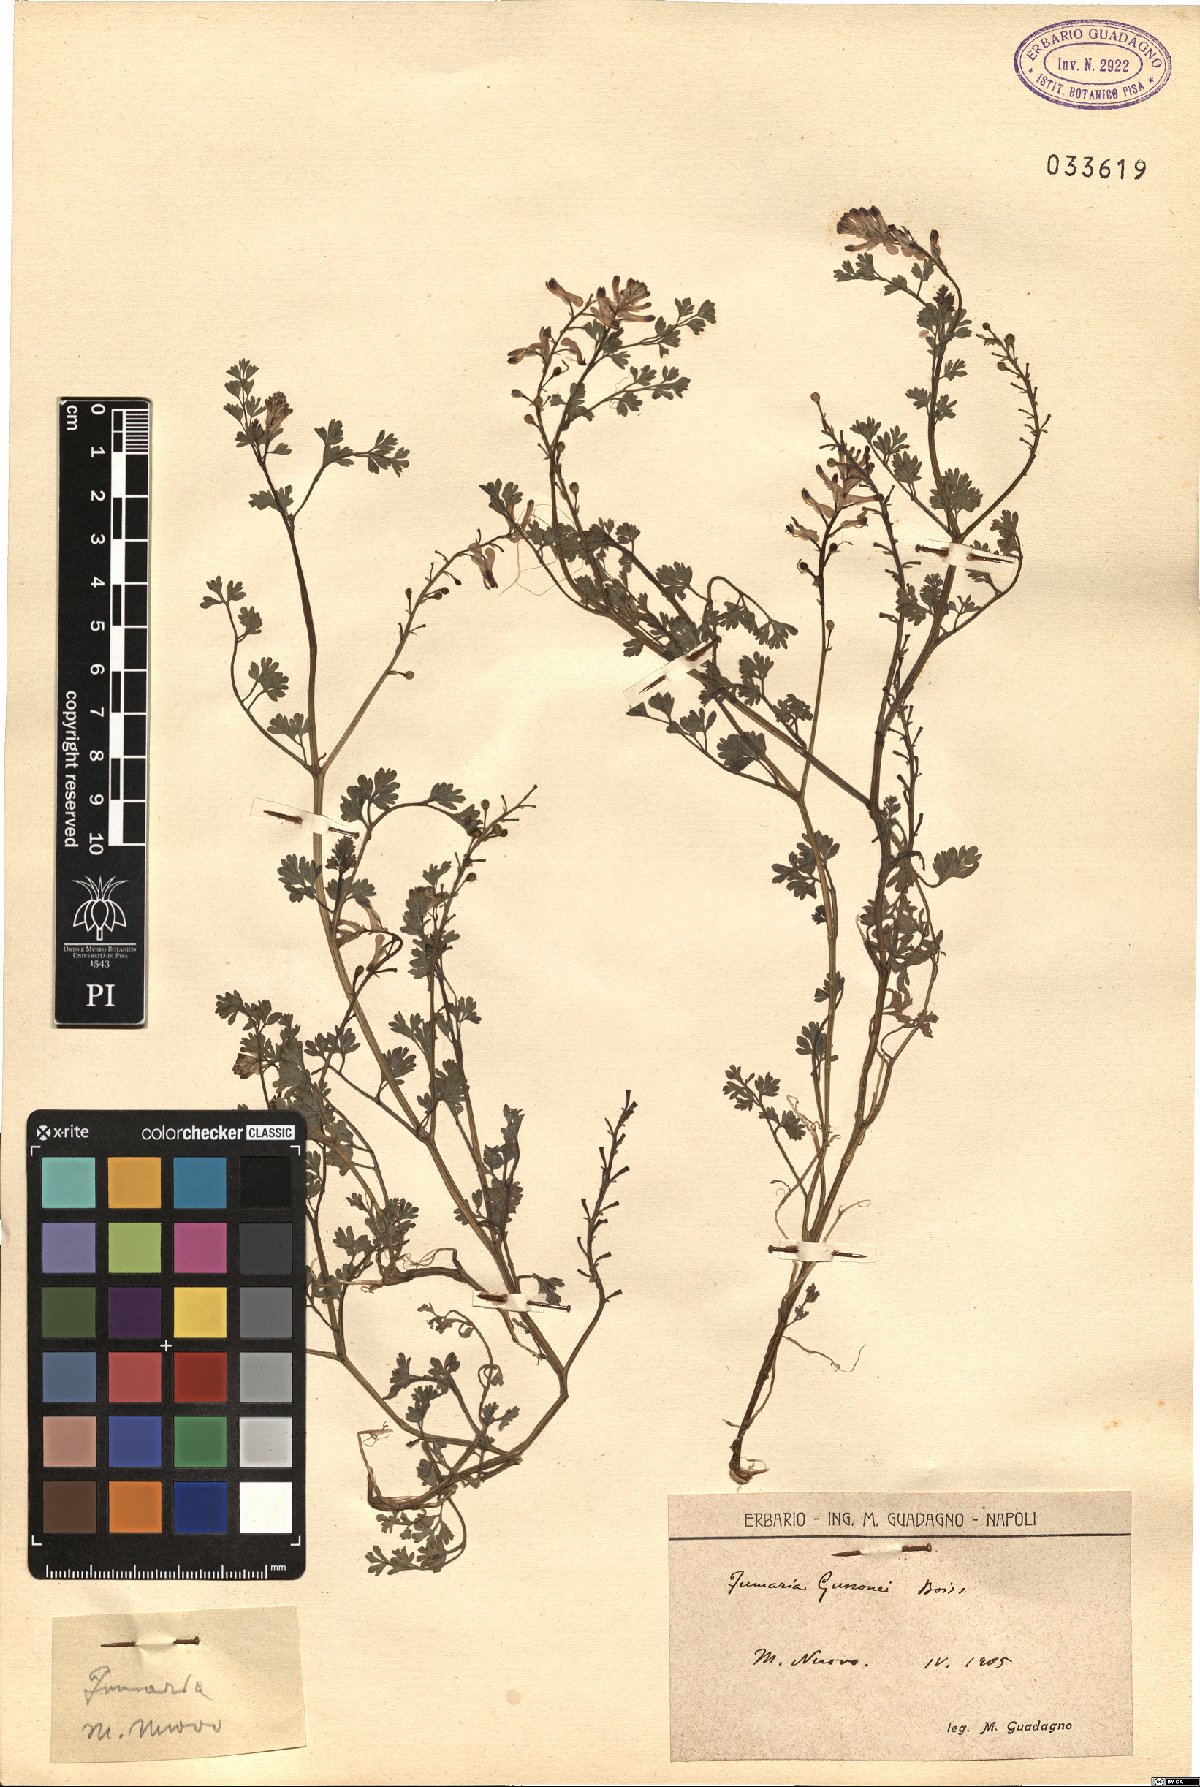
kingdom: Plantae
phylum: Tracheophyta
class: Magnoliopsida
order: Ranunculales
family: Papaveraceae
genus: Fumaria
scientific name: Fumaria bastardii
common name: Tall ramping-fumitory
